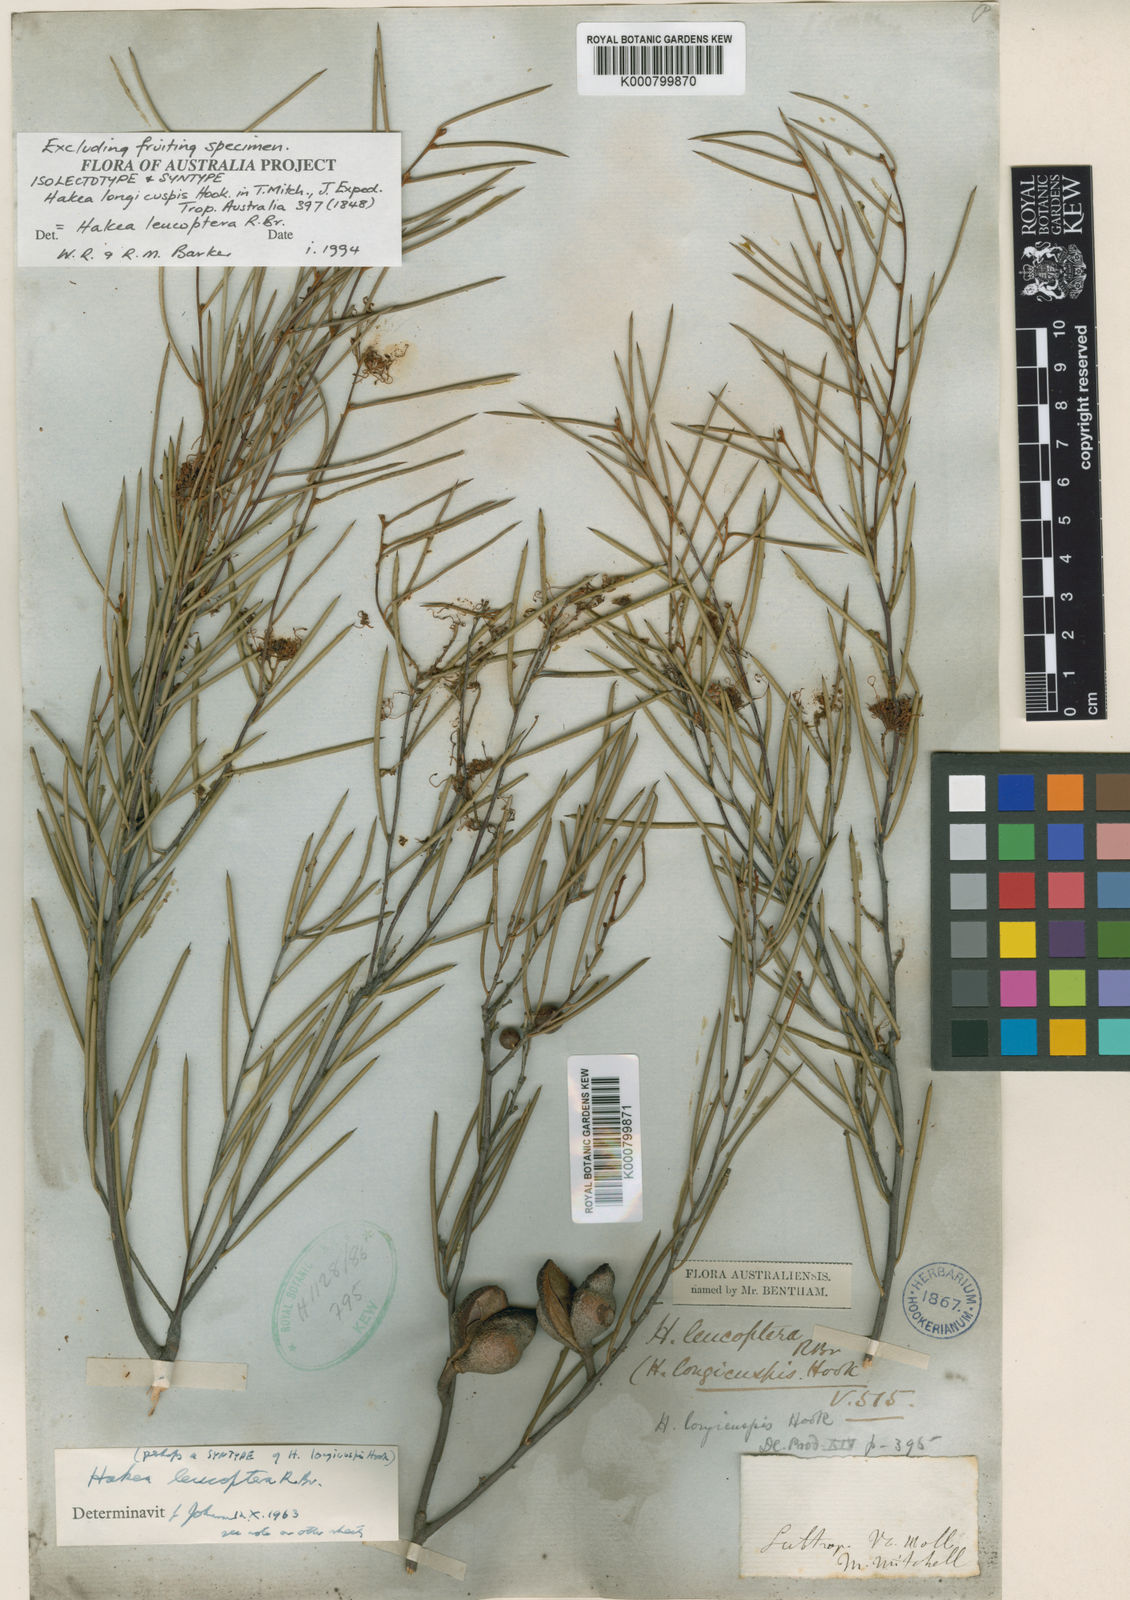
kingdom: Plantae
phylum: Tracheophyta
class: Magnoliopsida
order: Proteales
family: Proteaceae
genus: Hakea
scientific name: Hakea leucoptera
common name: Pinbush
